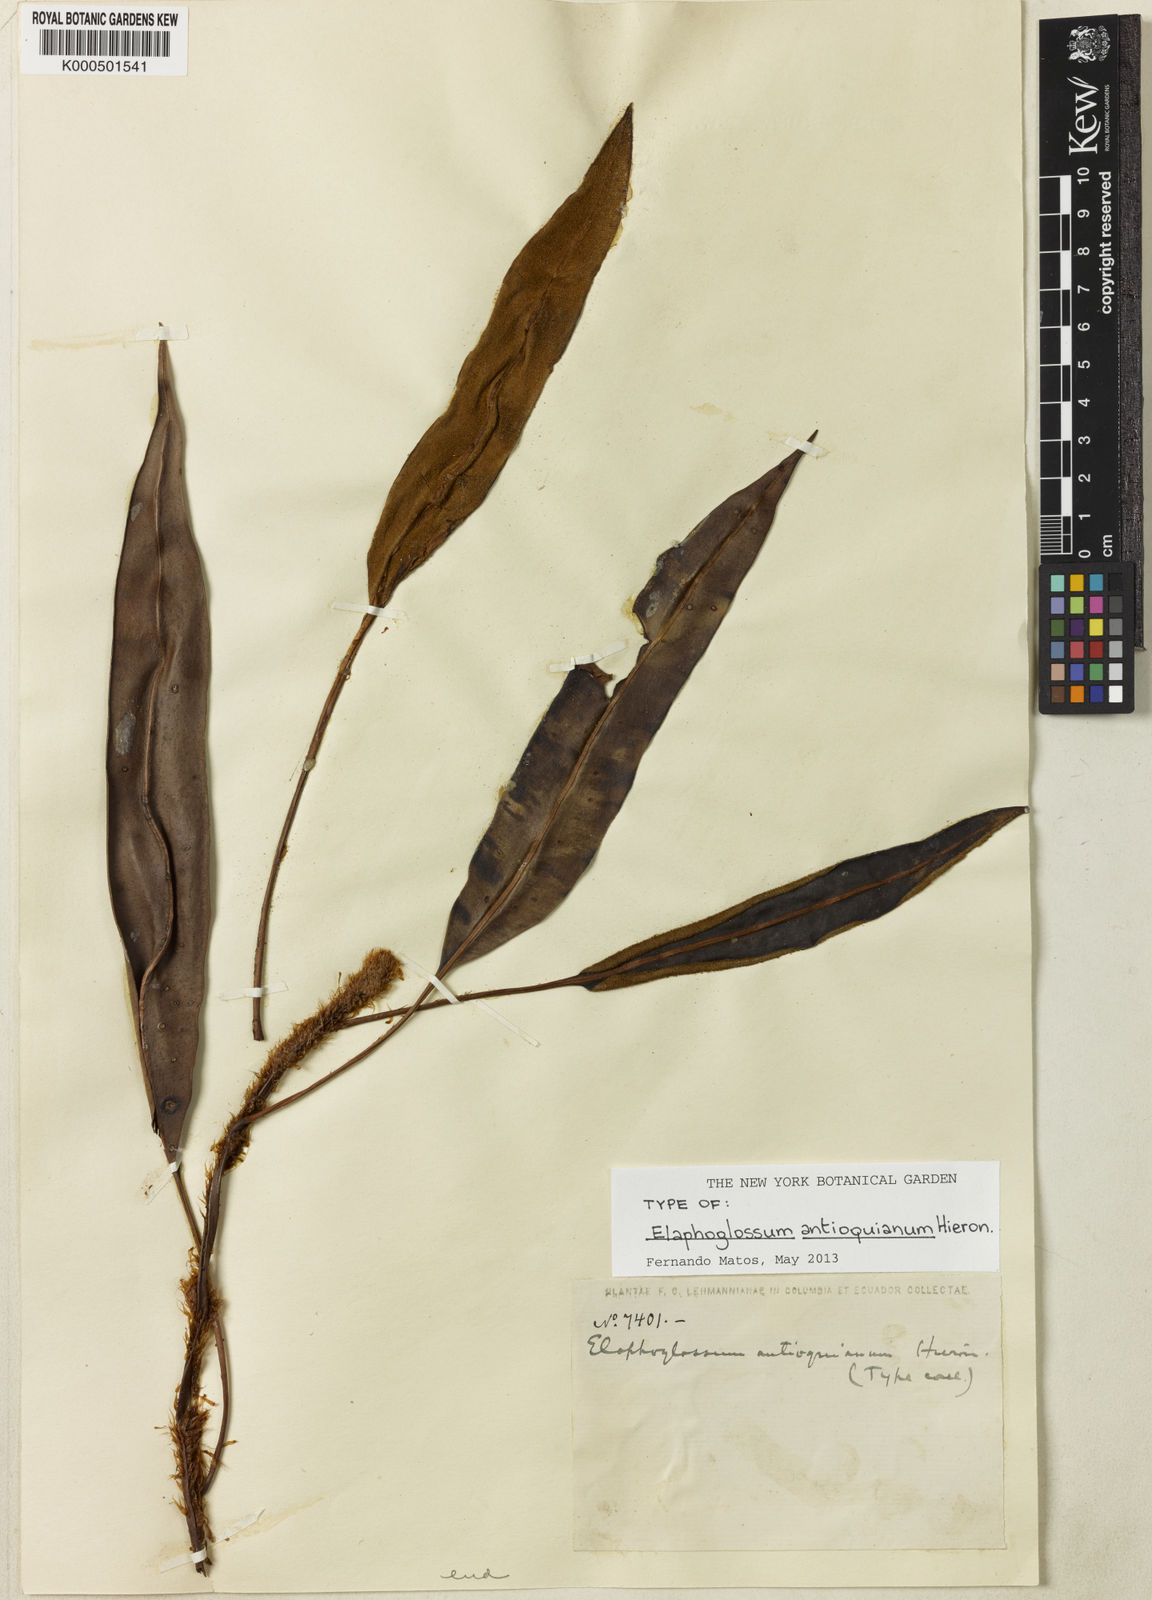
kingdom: Plantae
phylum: Tracheophyta
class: Polypodiopsida
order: Polypodiales
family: Dryopteridaceae
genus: Elaphoglossum
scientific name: Elaphoglossum antioquianum
